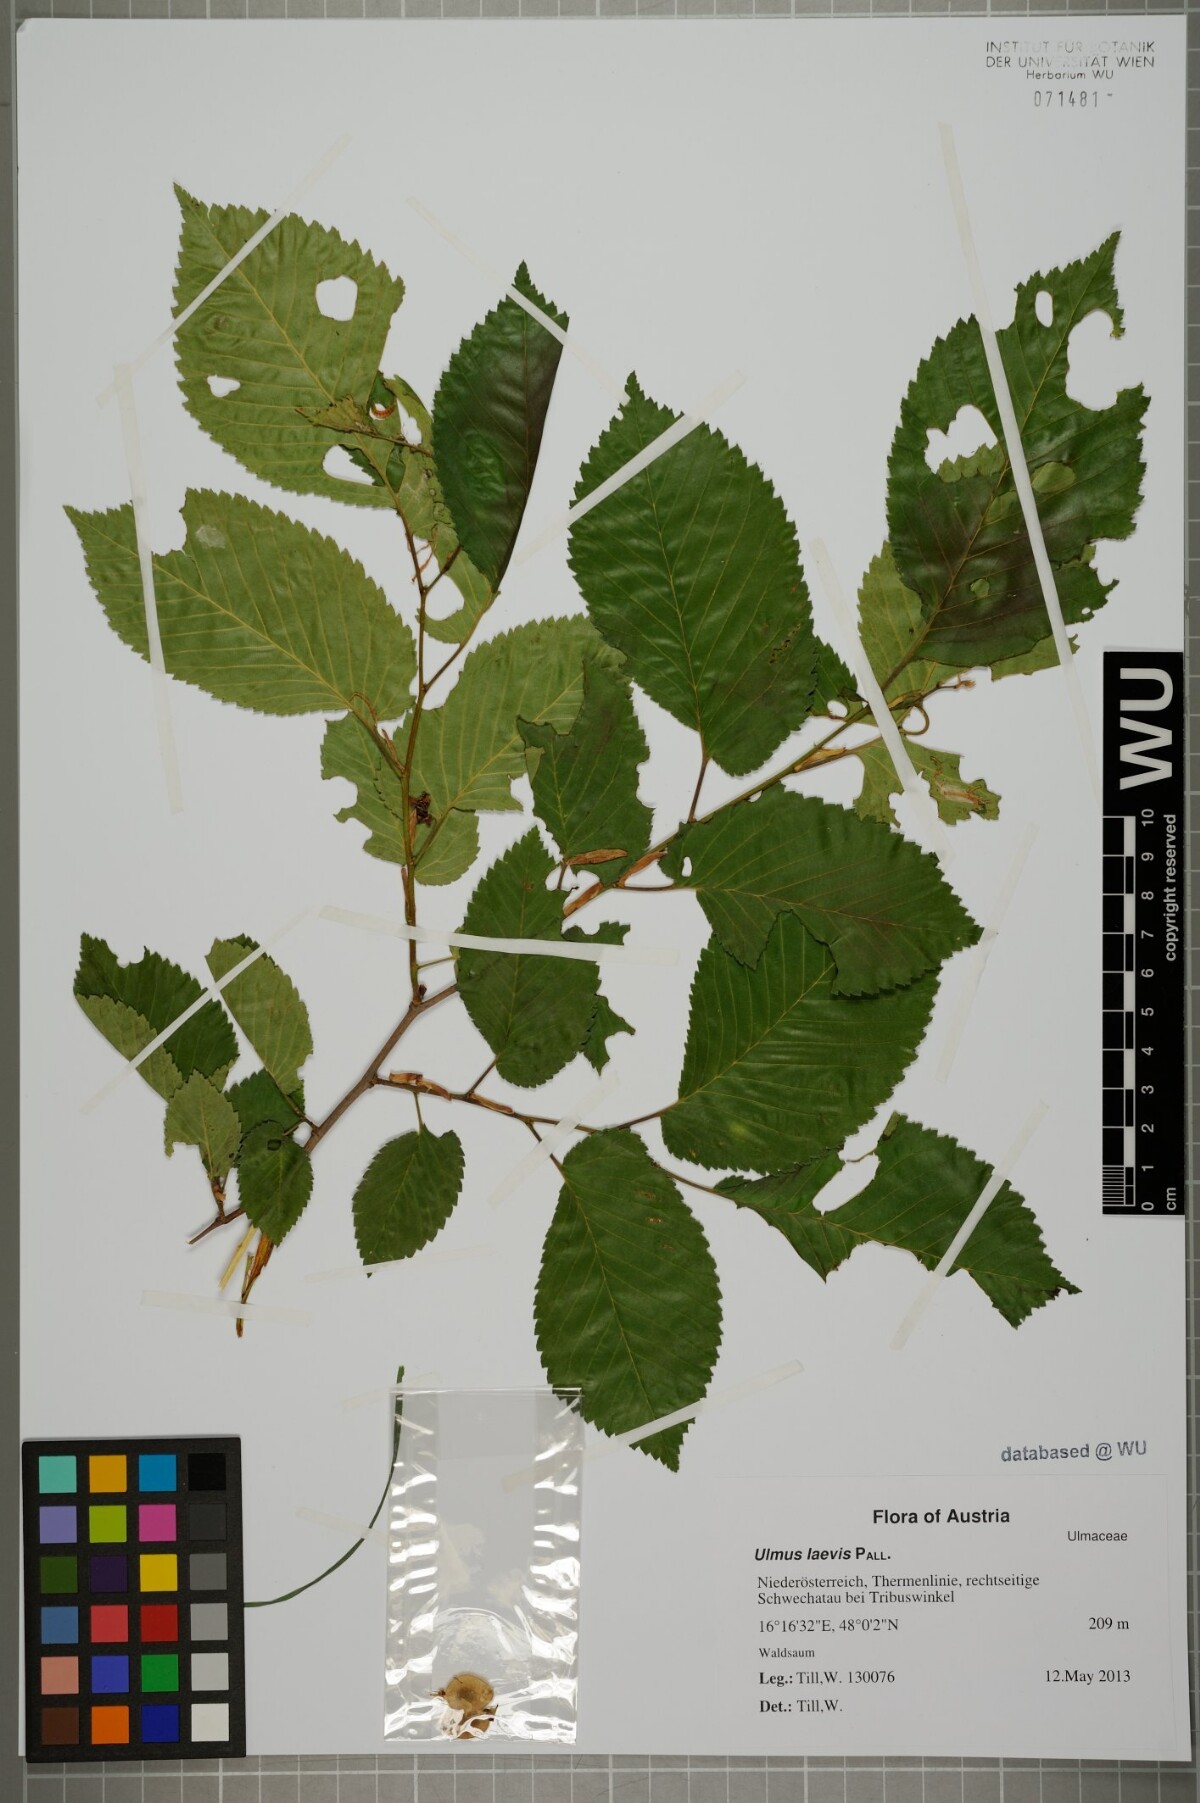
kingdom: Plantae
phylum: Tracheophyta
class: Magnoliopsida
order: Rosales
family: Ulmaceae
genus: Ulmus
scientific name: Ulmus laevis
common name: European white-elm
